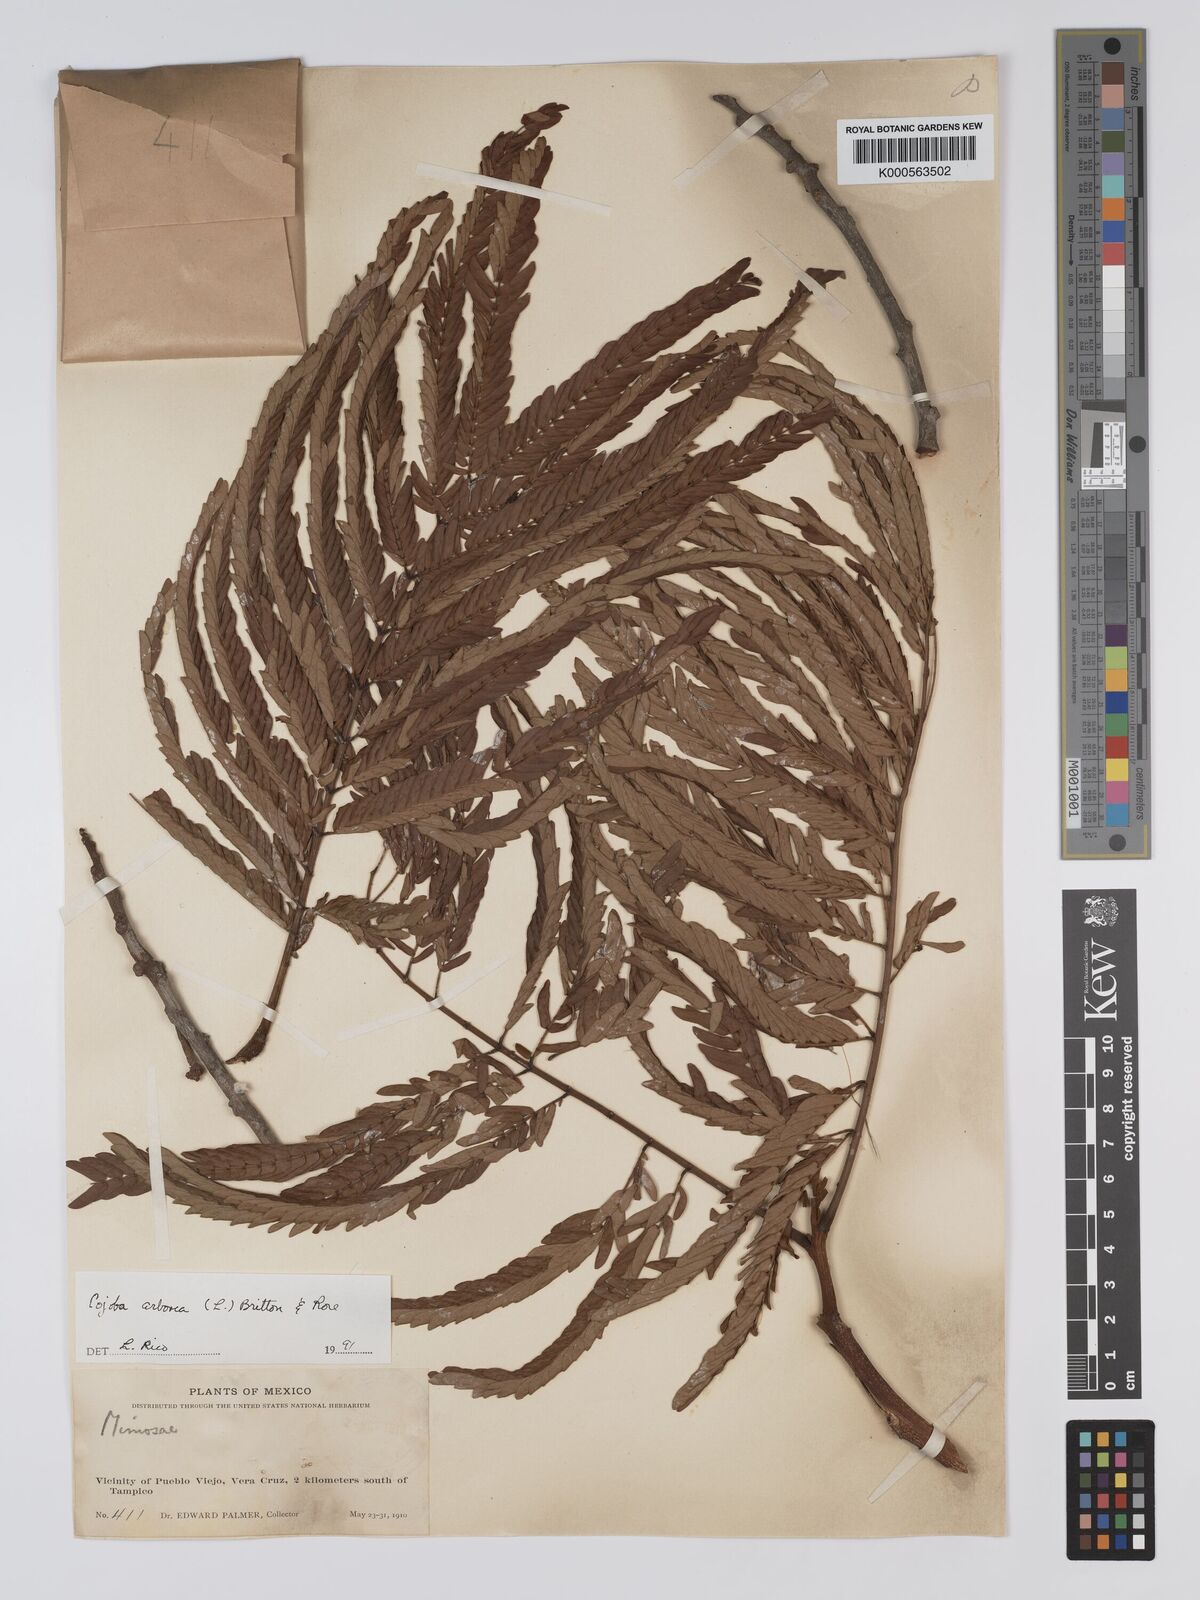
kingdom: Plantae
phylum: Tracheophyta
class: Magnoliopsida
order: Fabales
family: Fabaceae
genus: Cojoba
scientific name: Cojoba arborea
